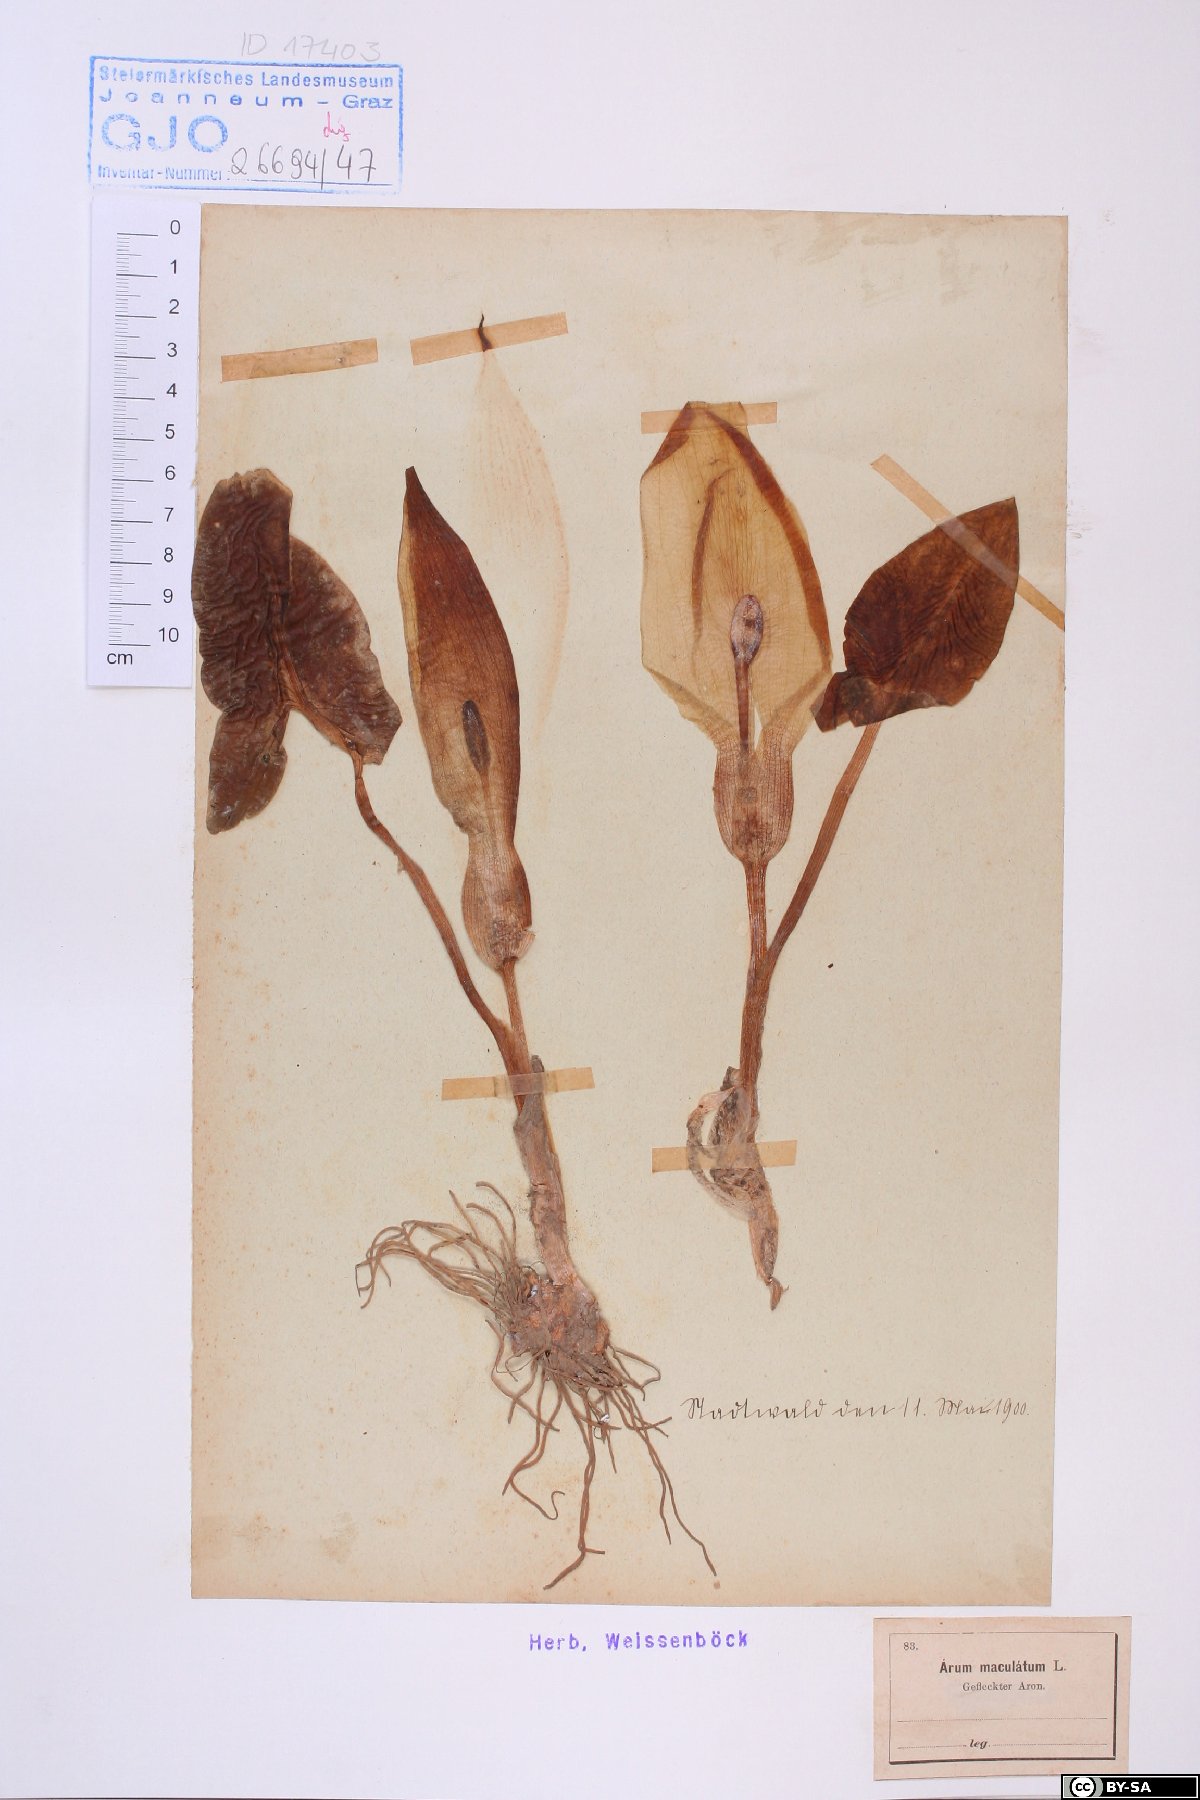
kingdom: Plantae
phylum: Tracheophyta
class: Liliopsida
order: Alismatales
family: Araceae
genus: Arum
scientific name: Arum maculatum
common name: Lords-and-ladies
